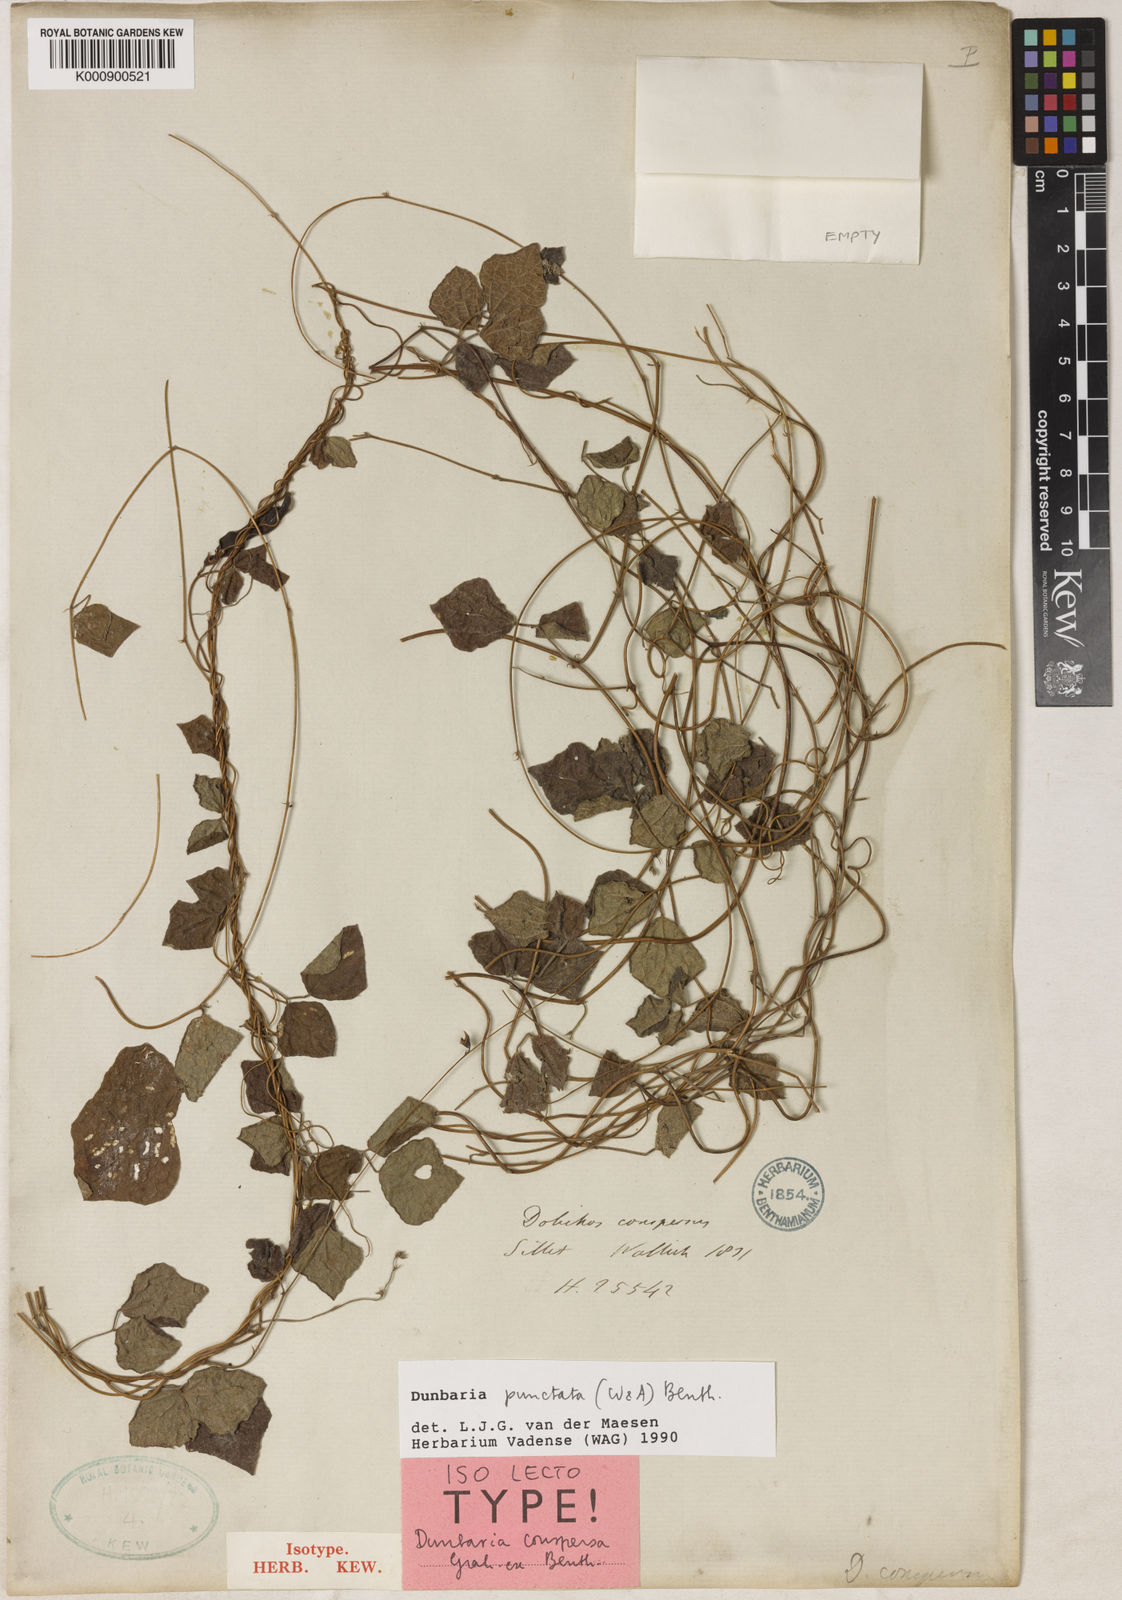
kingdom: Plantae
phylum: Tracheophyta
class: Magnoliopsida
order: Fabales
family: Fabaceae
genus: Dunbaria
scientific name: Dunbaria punctata
